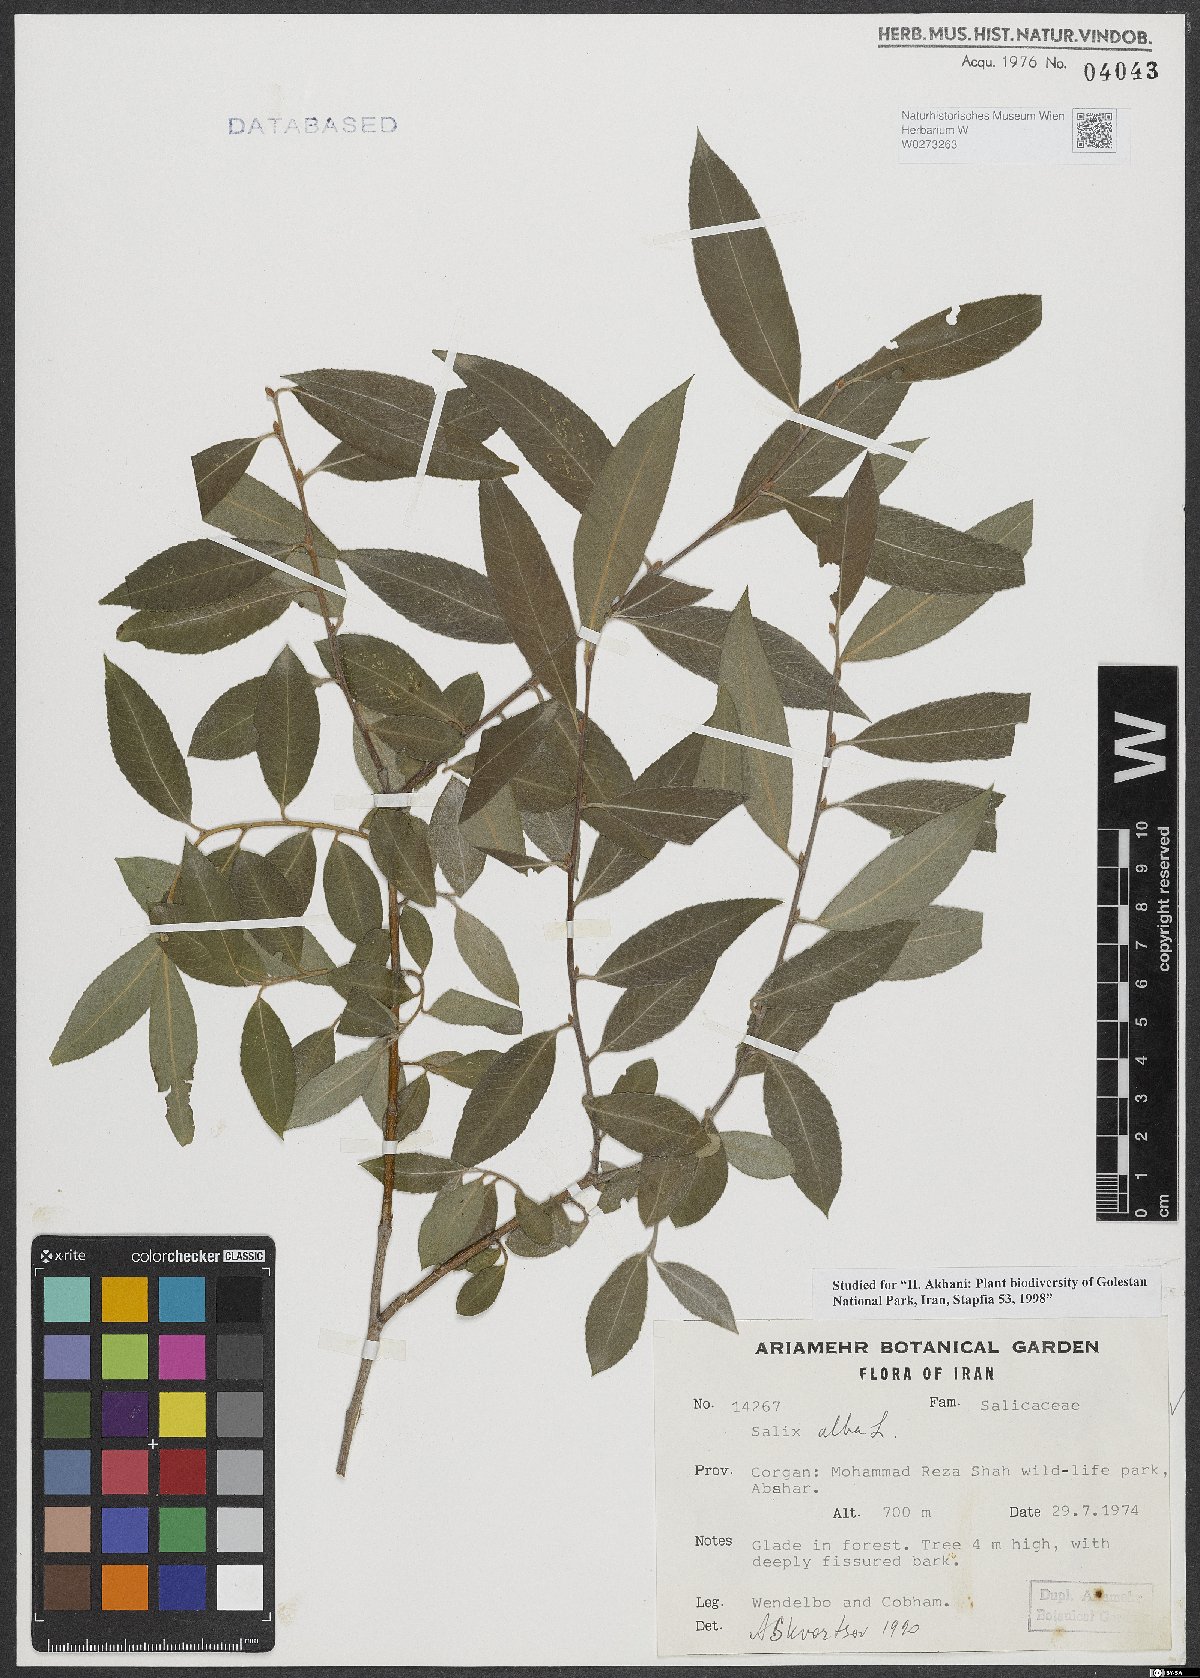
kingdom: Plantae
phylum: Tracheophyta
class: Magnoliopsida
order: Malpighiales
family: Salicaceae
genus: Salix
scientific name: Salix alba
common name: White willow
